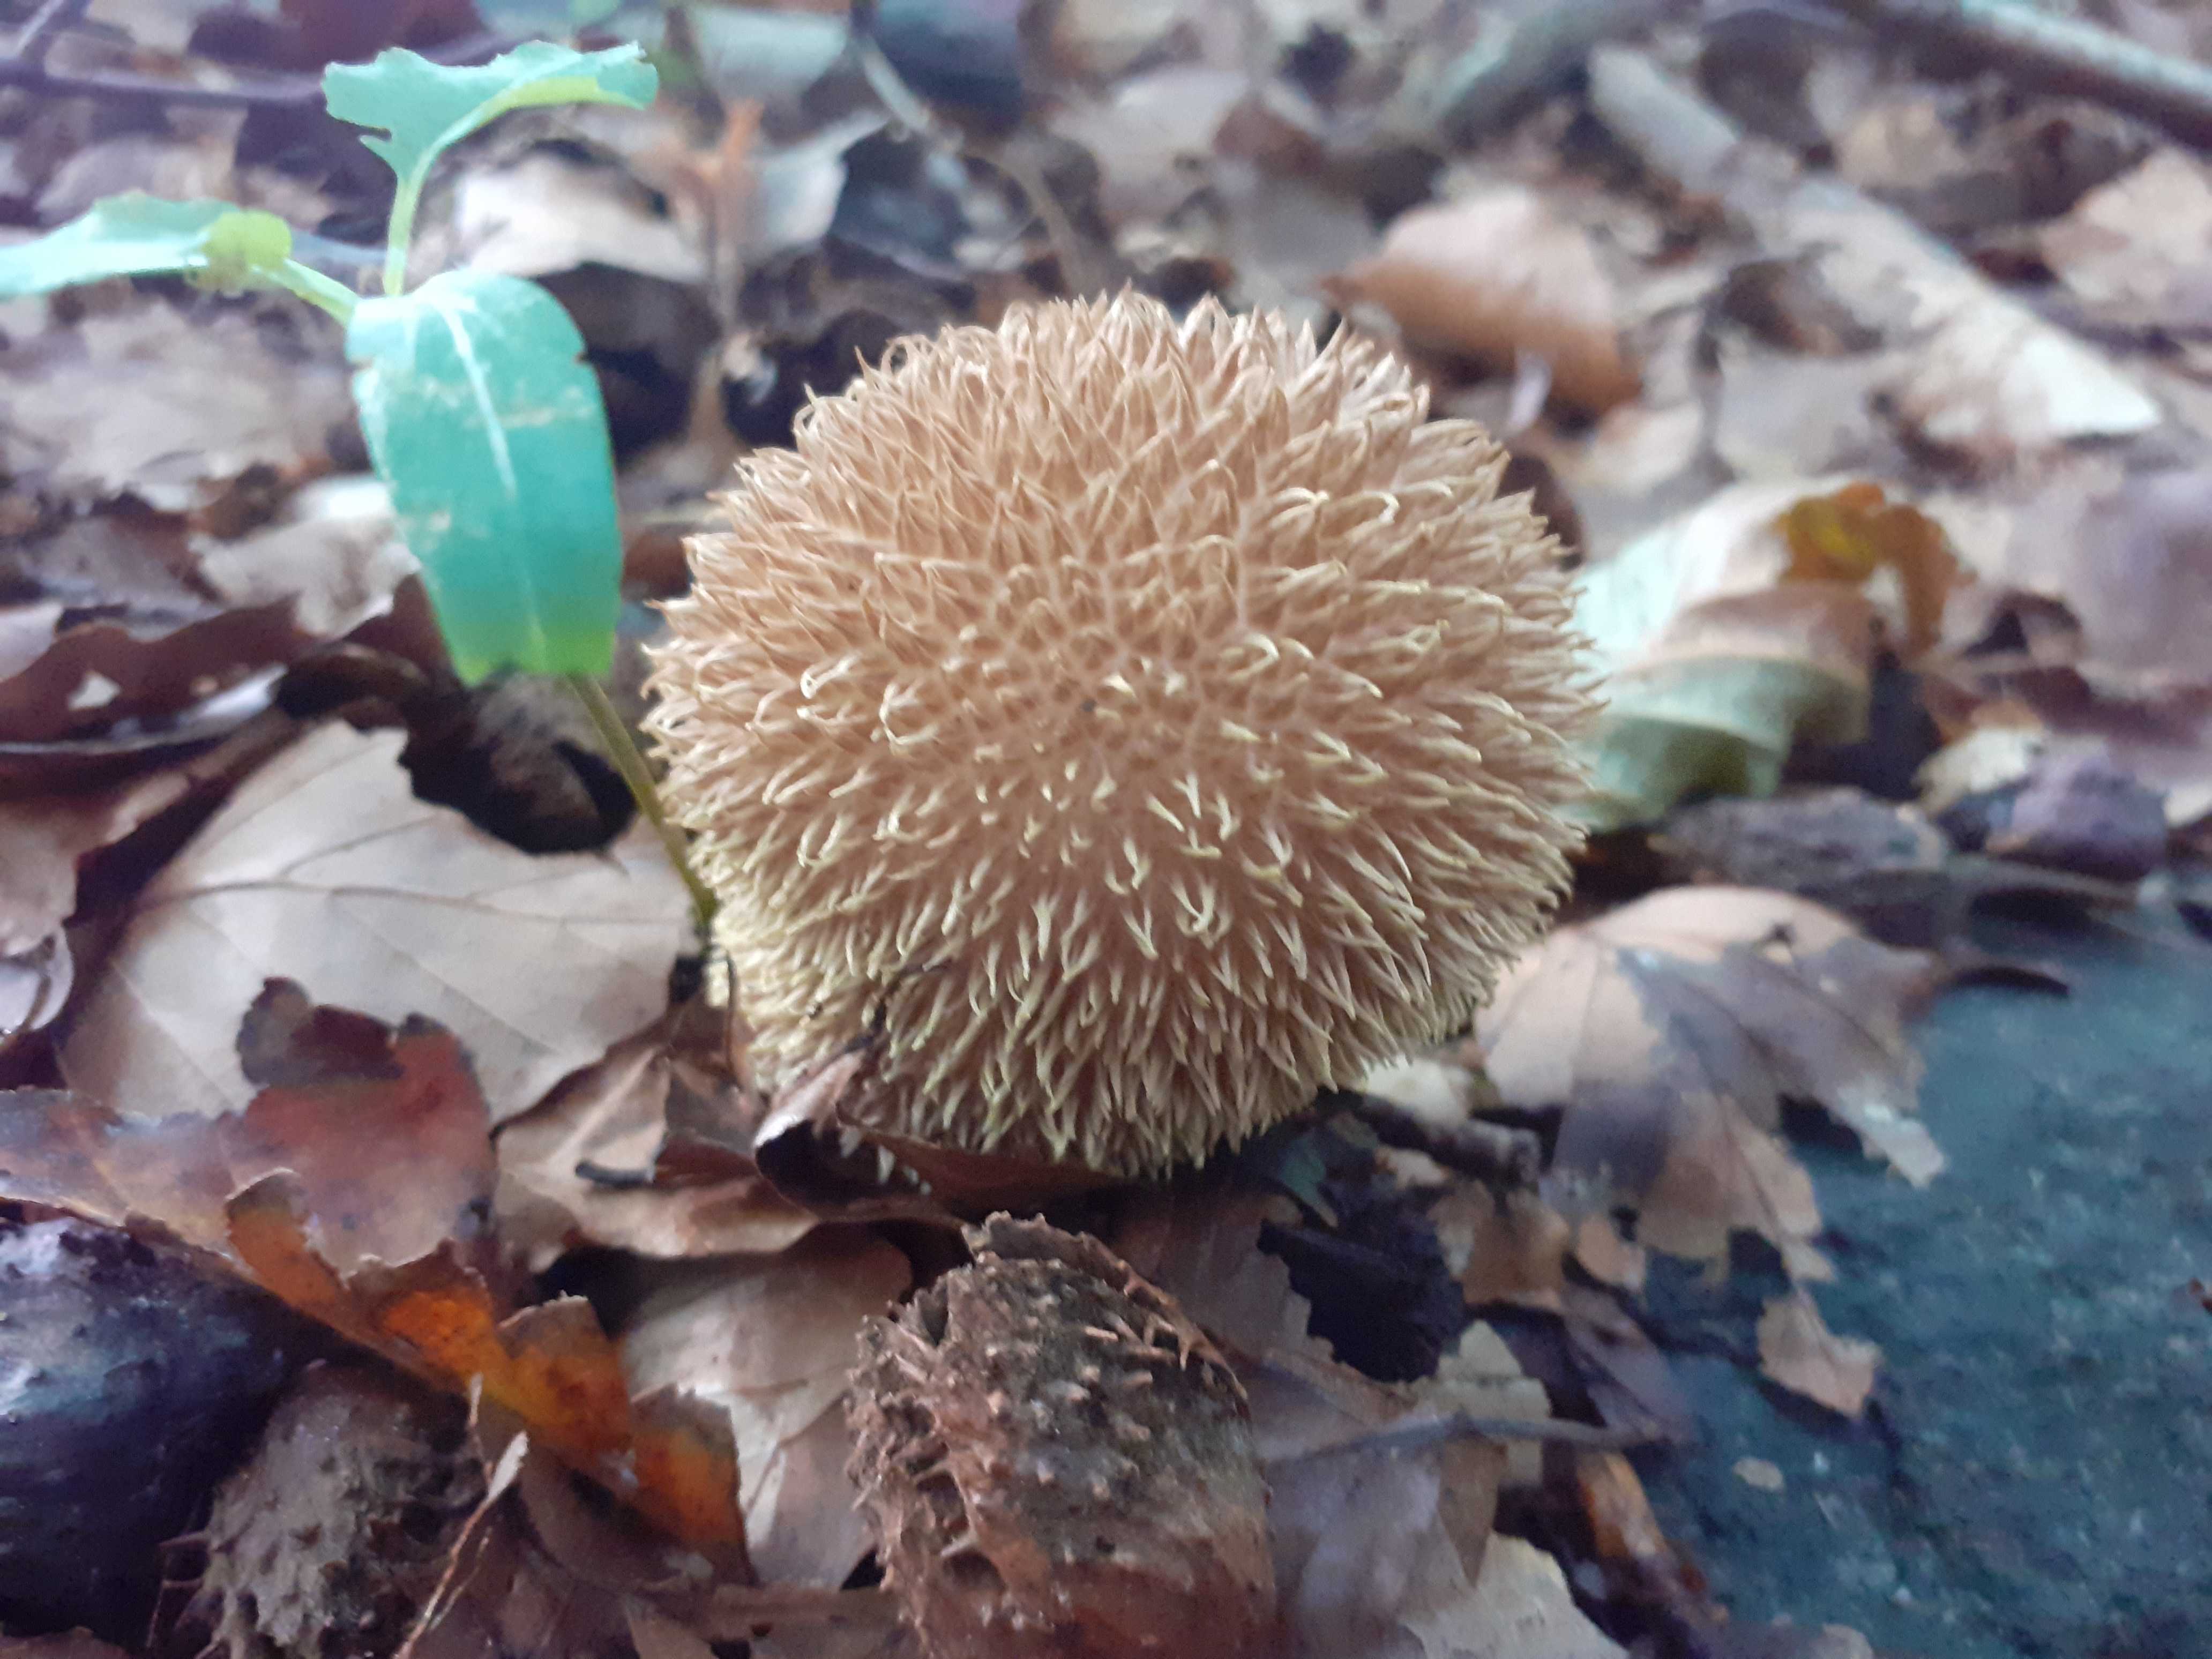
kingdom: Fungi
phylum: Basidiomycota
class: Agaricomycetes
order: Agaricales
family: Lycoperdaceae
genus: Lycoperdon
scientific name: Lycoperdon echinatum
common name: pindsvine-støvbold
